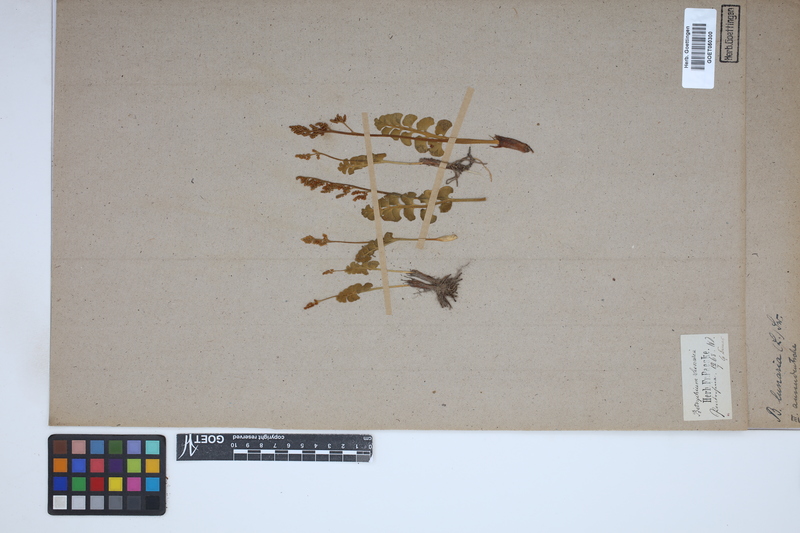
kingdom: Plantae
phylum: Tracheophyta
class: Polypodiopsida
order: Ophioglossales
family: Ophioglossaceae
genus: Botrychium
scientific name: Botrychium lunaria
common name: Moonwort
